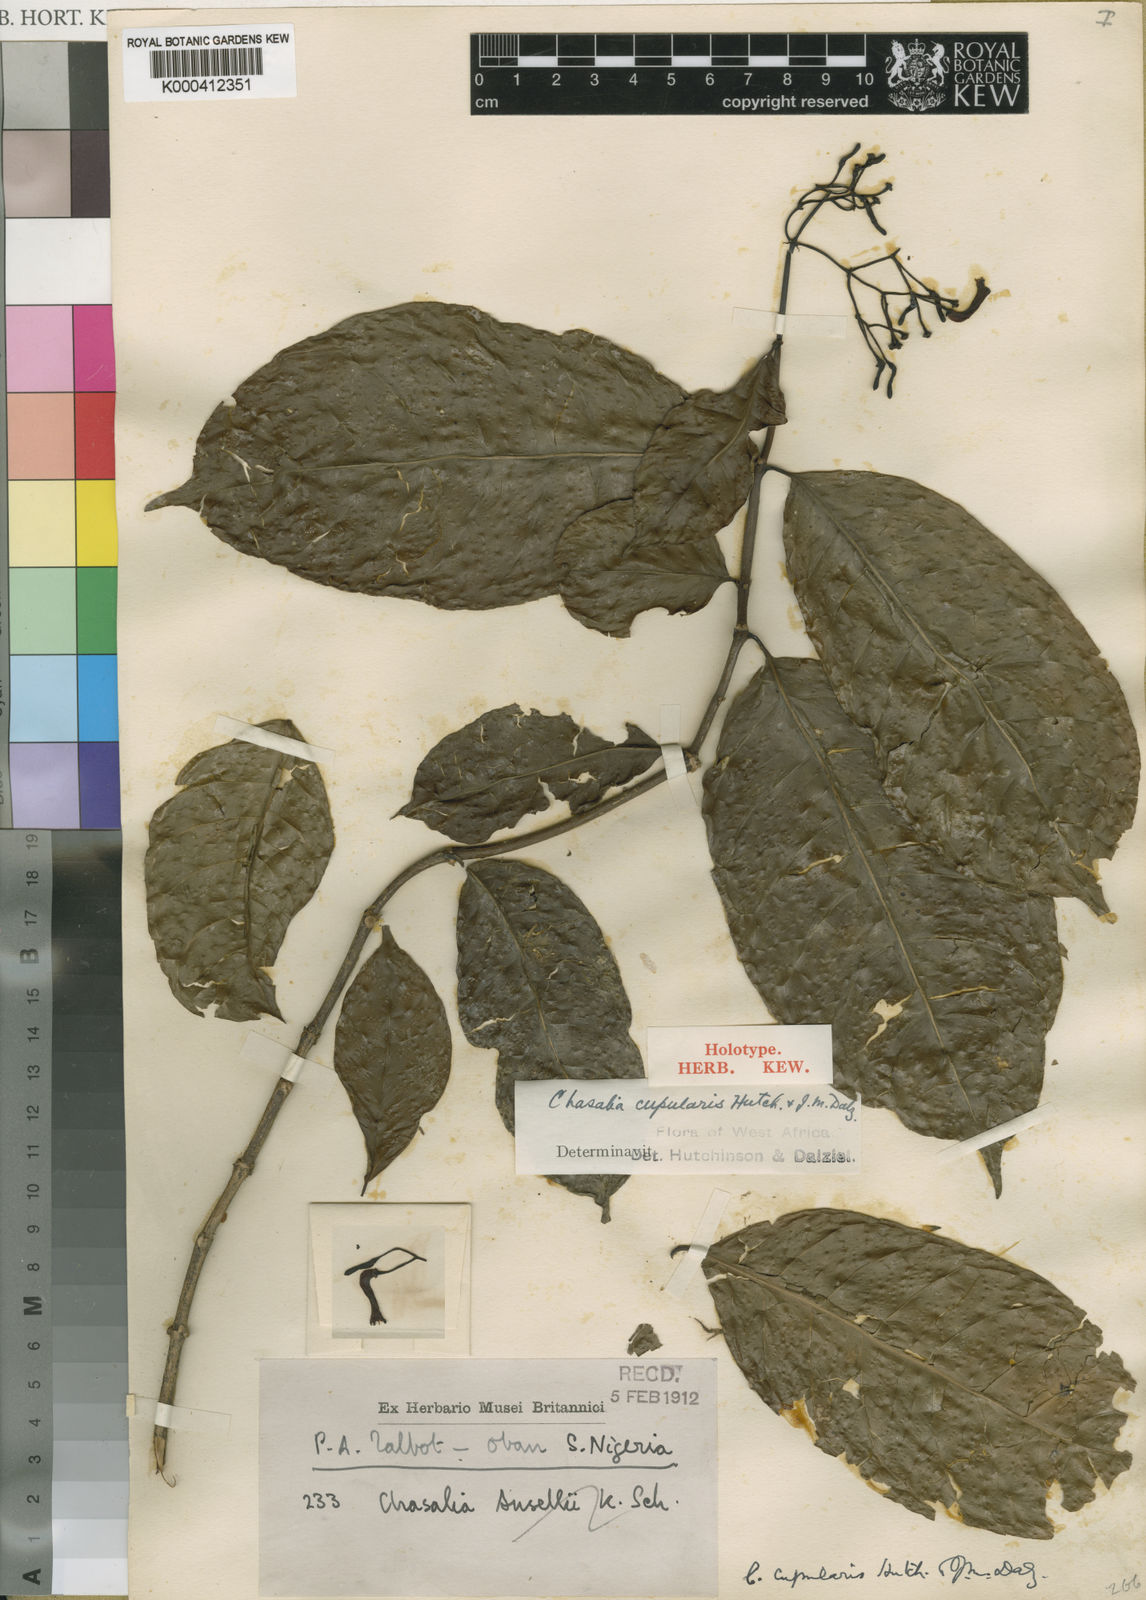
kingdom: Plantae
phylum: Tracheophyta
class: Magnoliopsida
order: Gentianales
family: Rubiaceae
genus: Chassalia
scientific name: Chassalia cupularis
